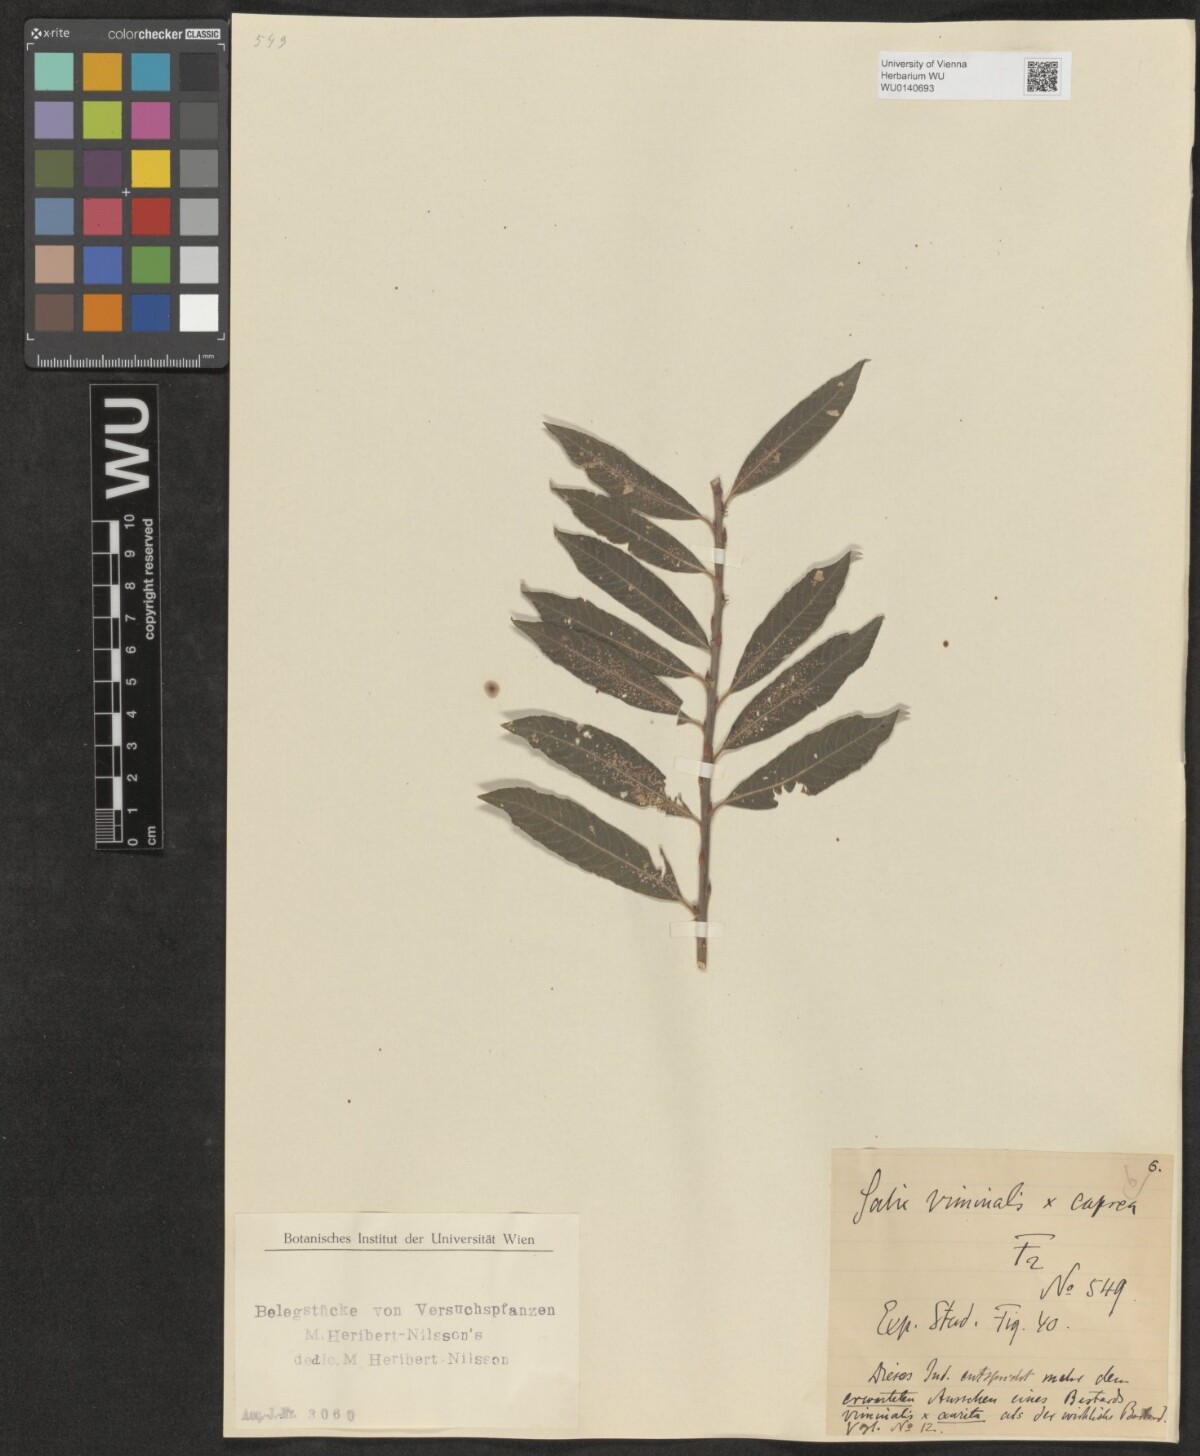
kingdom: Plantae
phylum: Tracheophyta
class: Magnoliopsida
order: Malpighiales
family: Salicaceae
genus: Salix
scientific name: Salix
